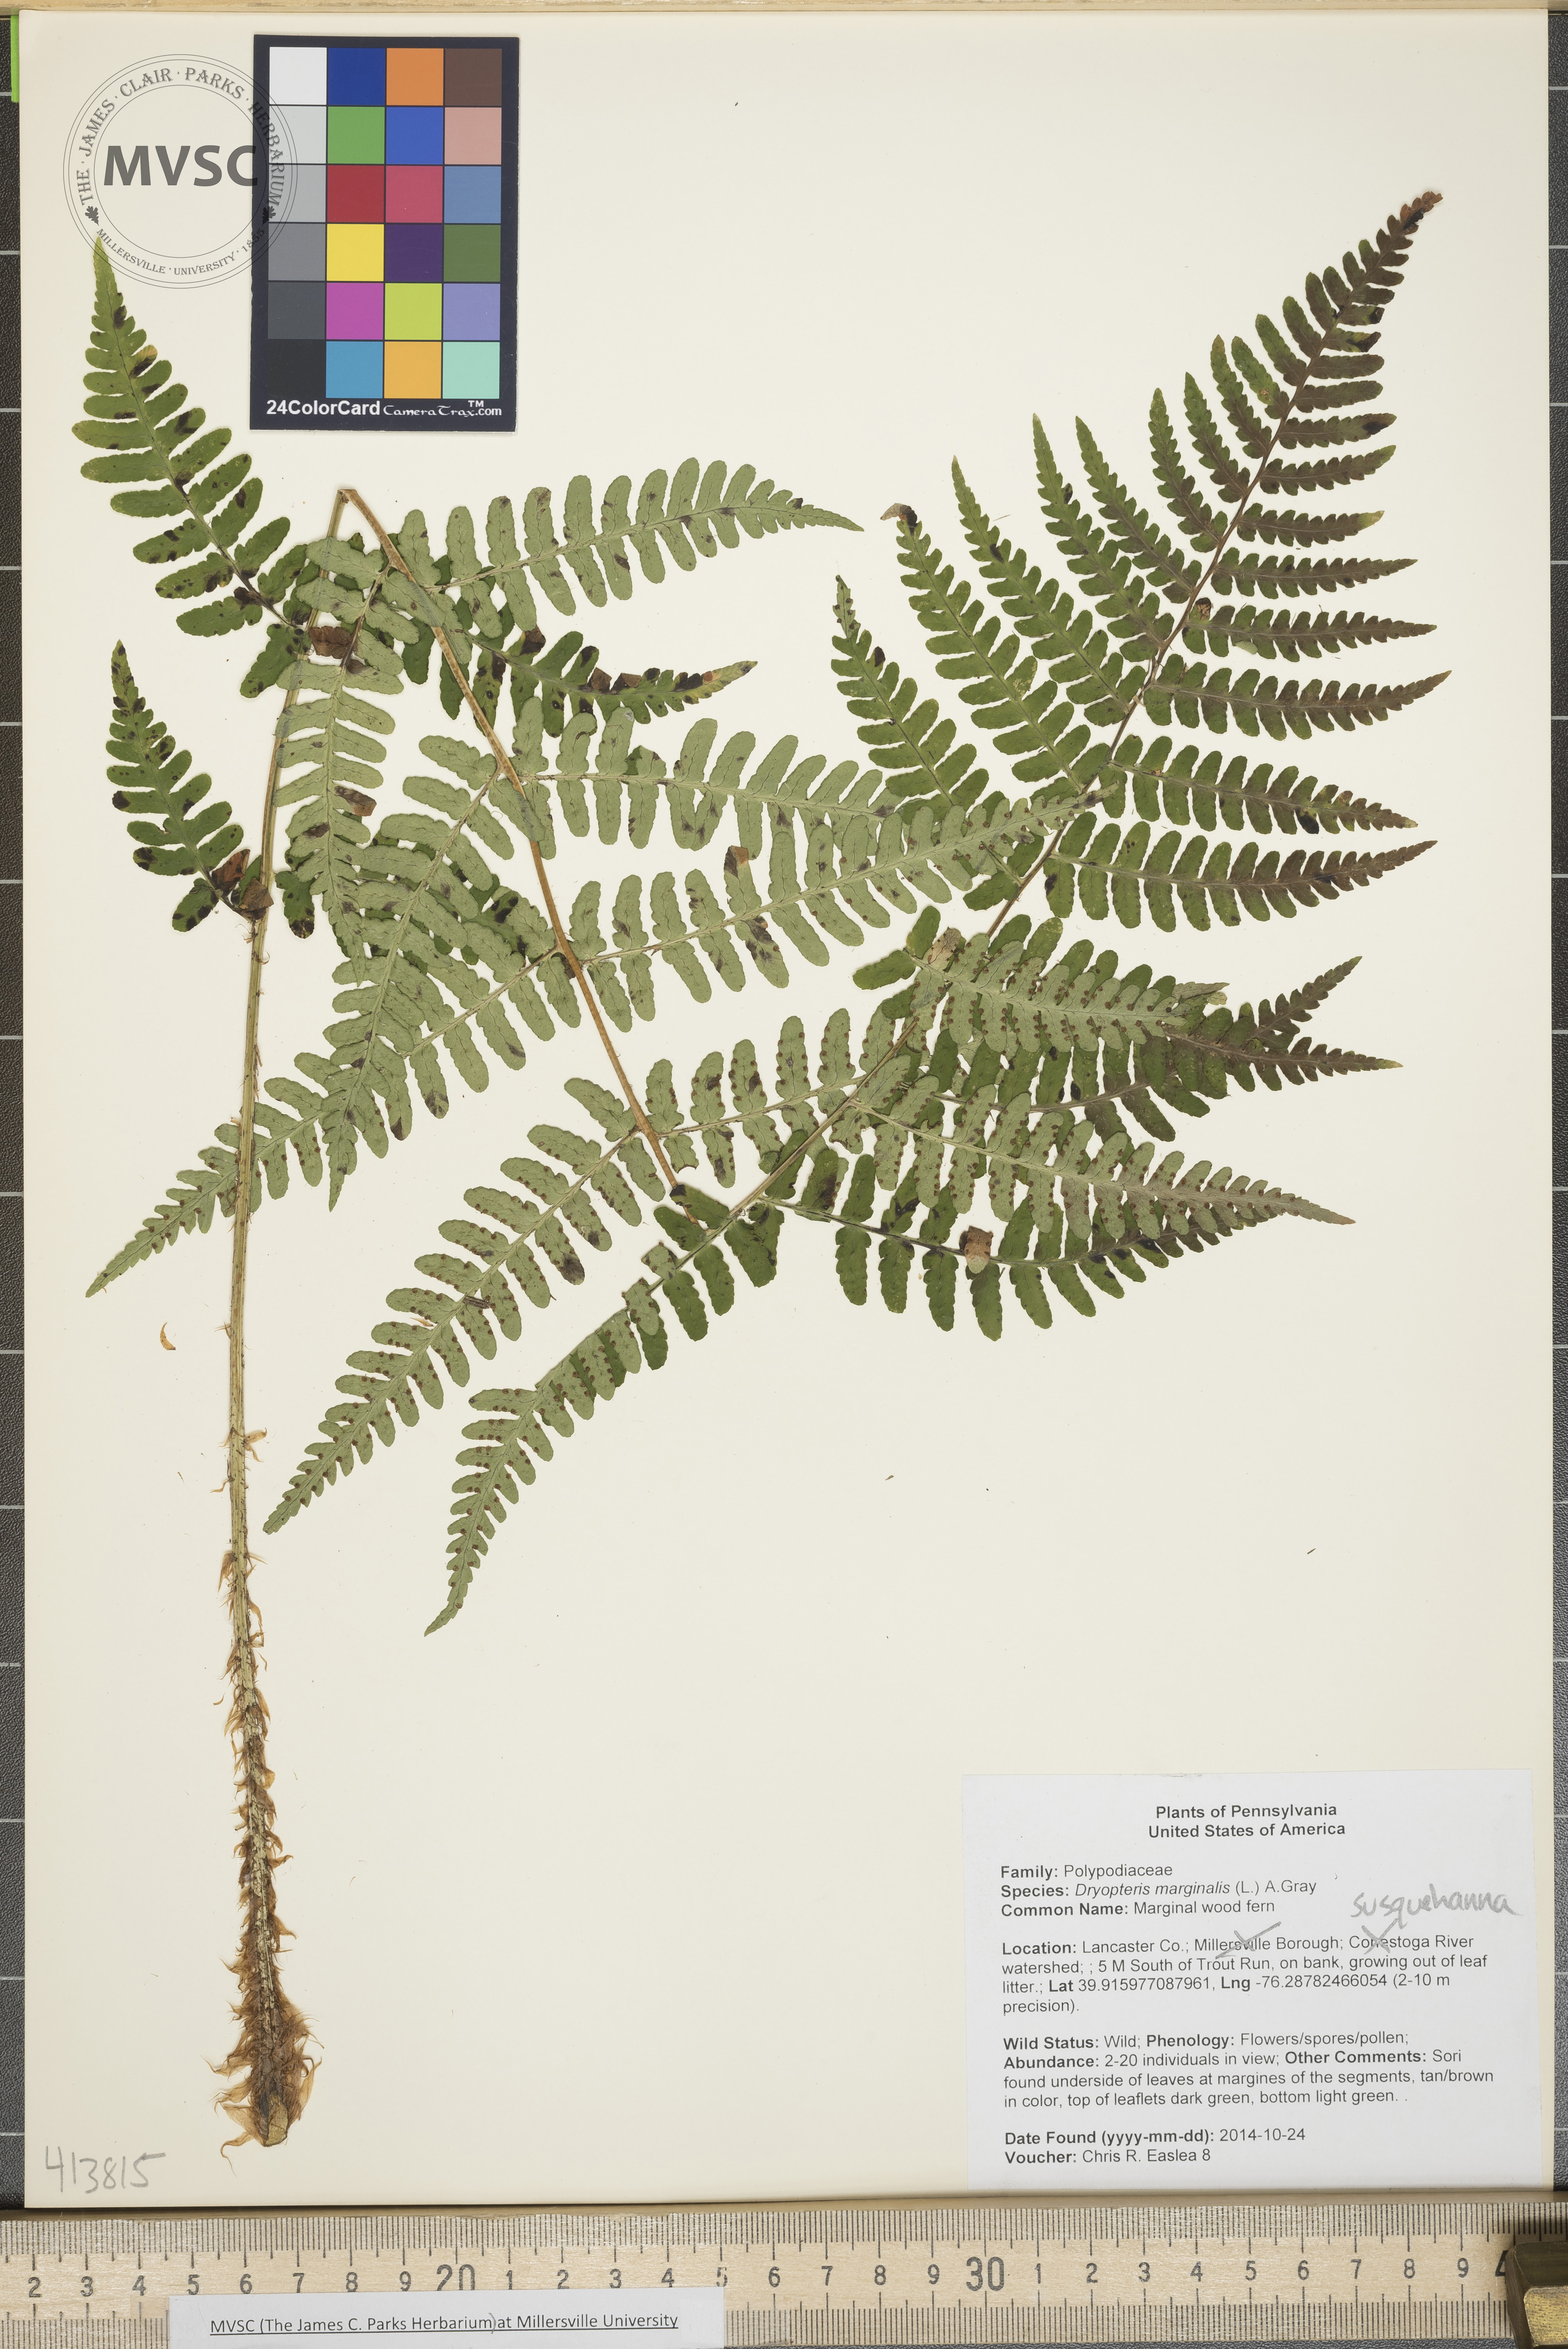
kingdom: Plantae
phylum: Tracheophyta
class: Polypodiopsida
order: Polypodiales
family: Dryopteridaceae
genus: Dryopteris
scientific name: Dryopteris marginalis
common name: Marginal wood fern
